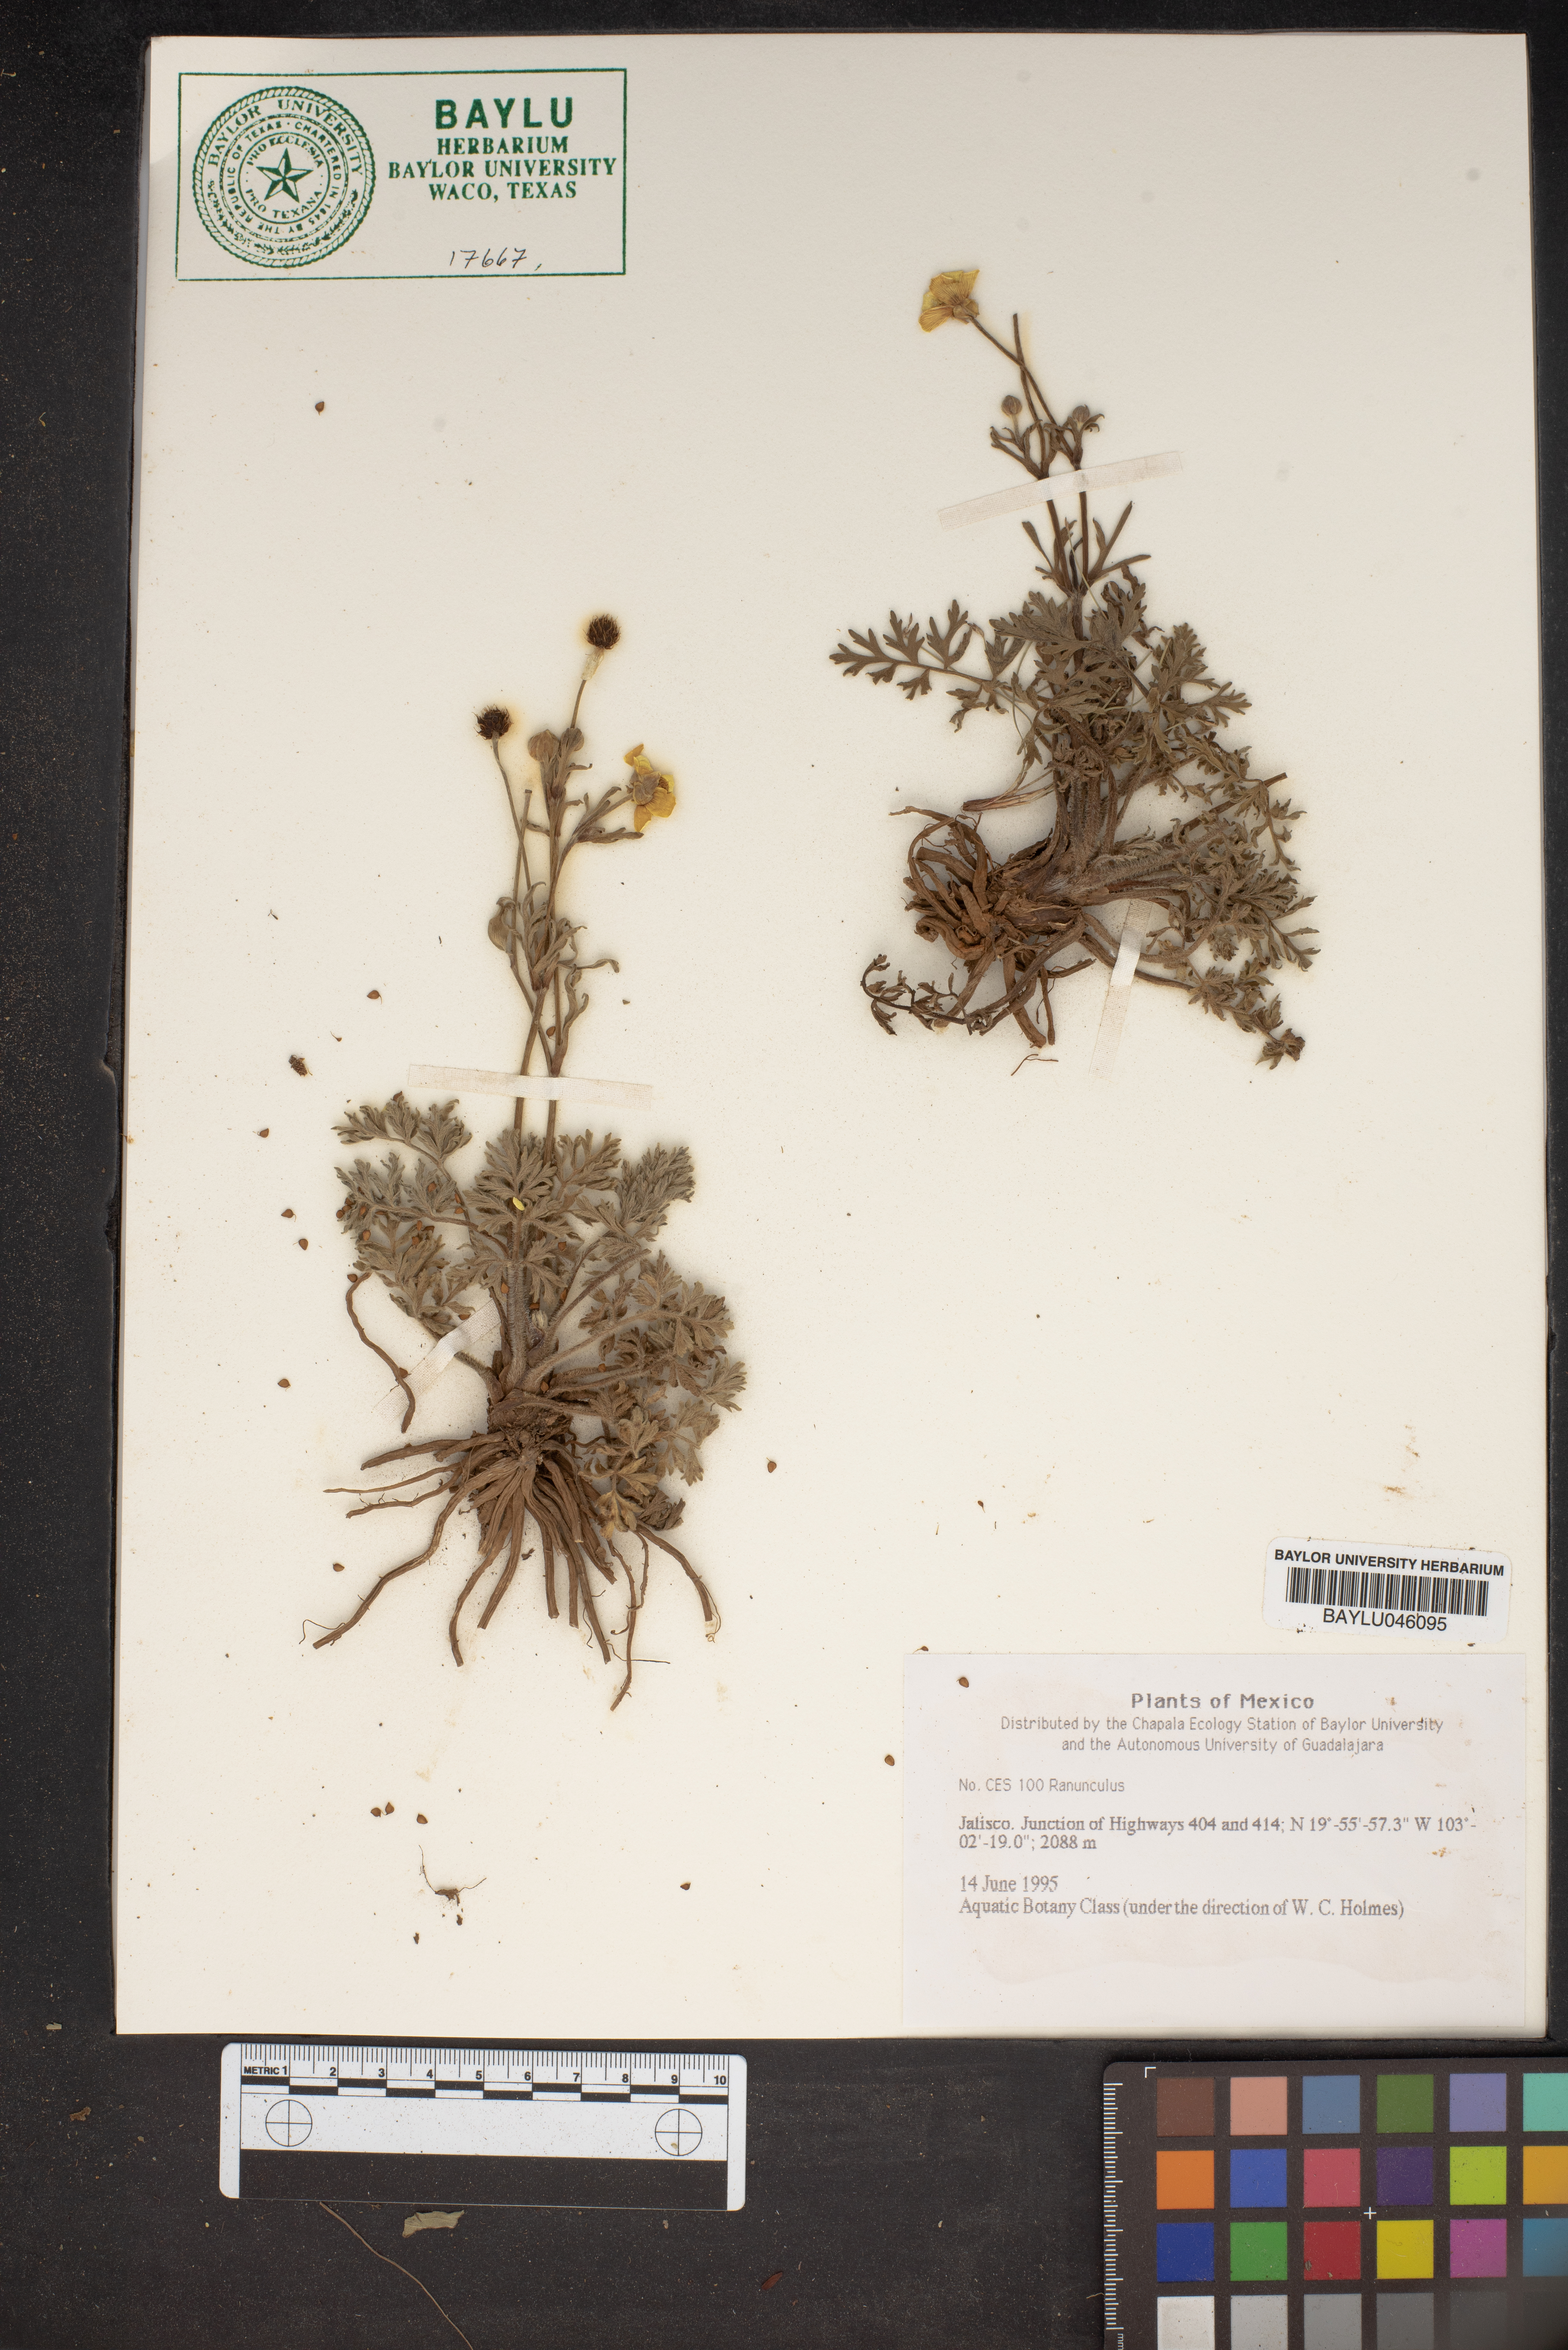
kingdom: Plantae
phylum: Tracheophyta
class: Magnoliopsida
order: Ranunculales
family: Ranunculaceae
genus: Ranunculus
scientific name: Ranunculus
